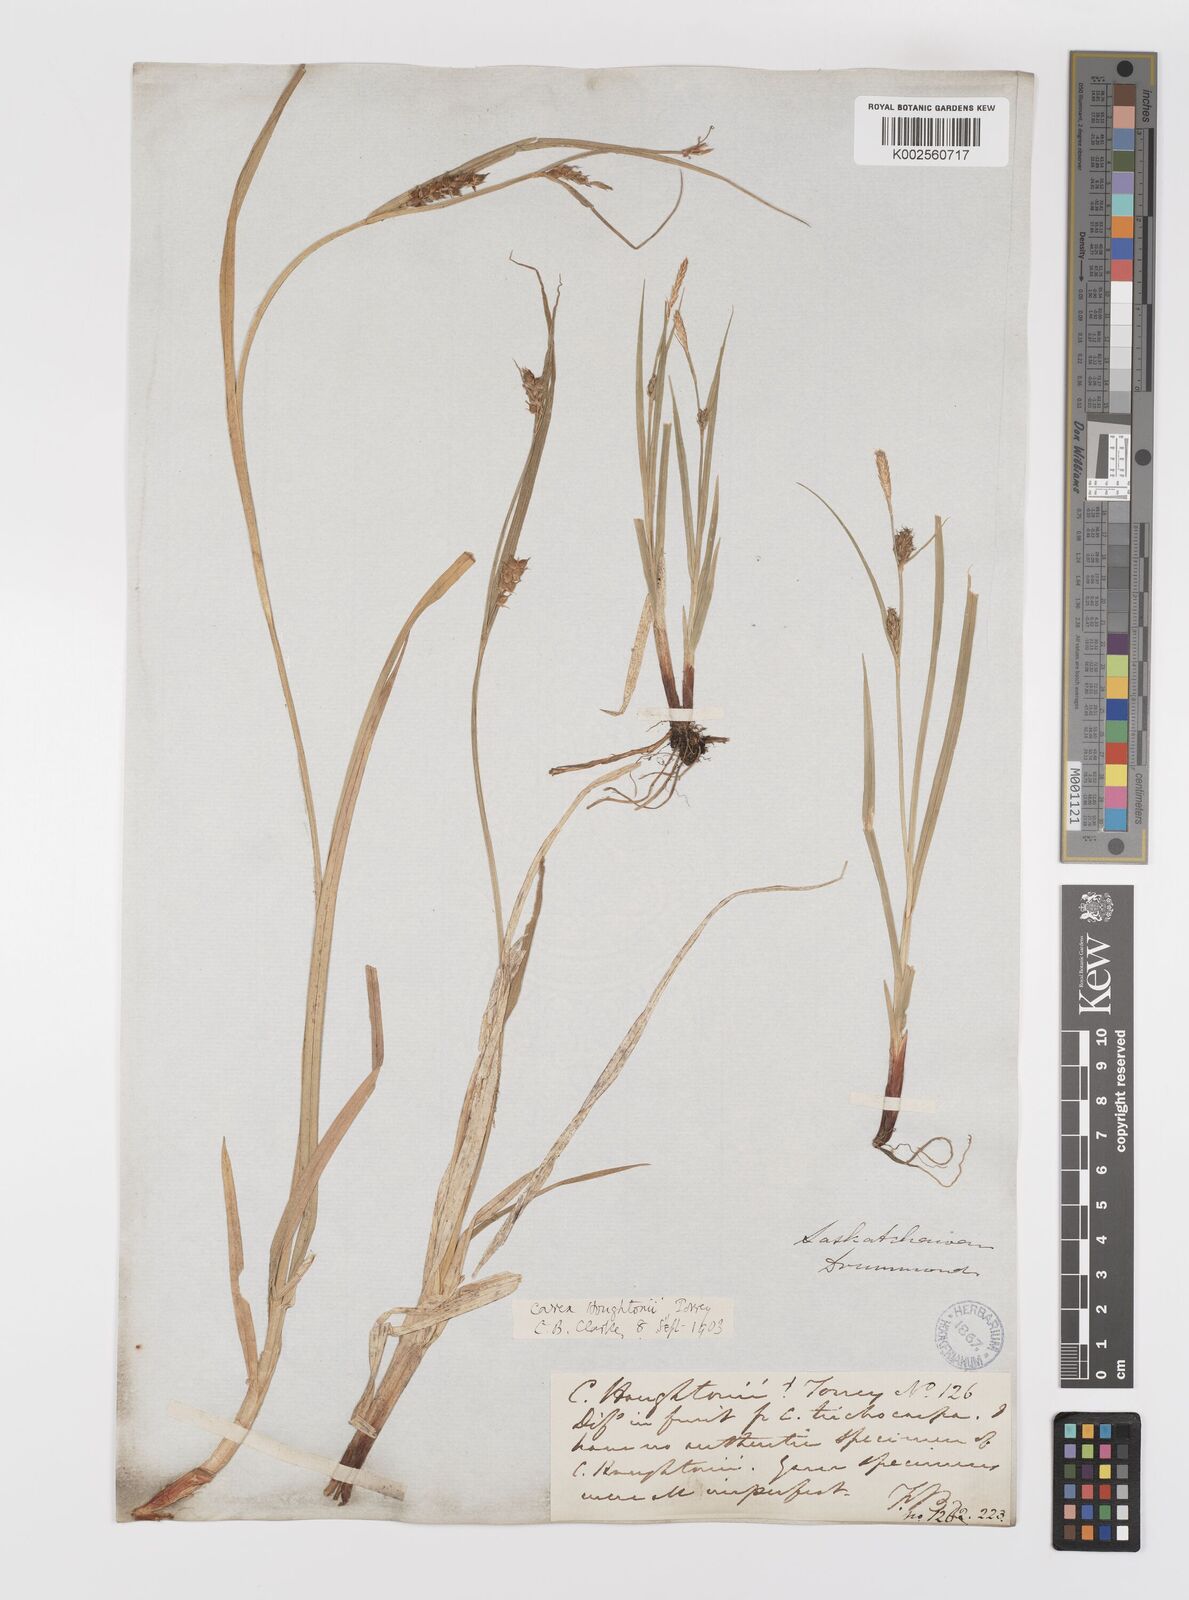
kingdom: Plantae
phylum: Tracheophyta
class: Liliopsida
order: Poales
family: Cyperaceae
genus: Carex
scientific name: Carex houghtoniana
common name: Houghton's sedge
